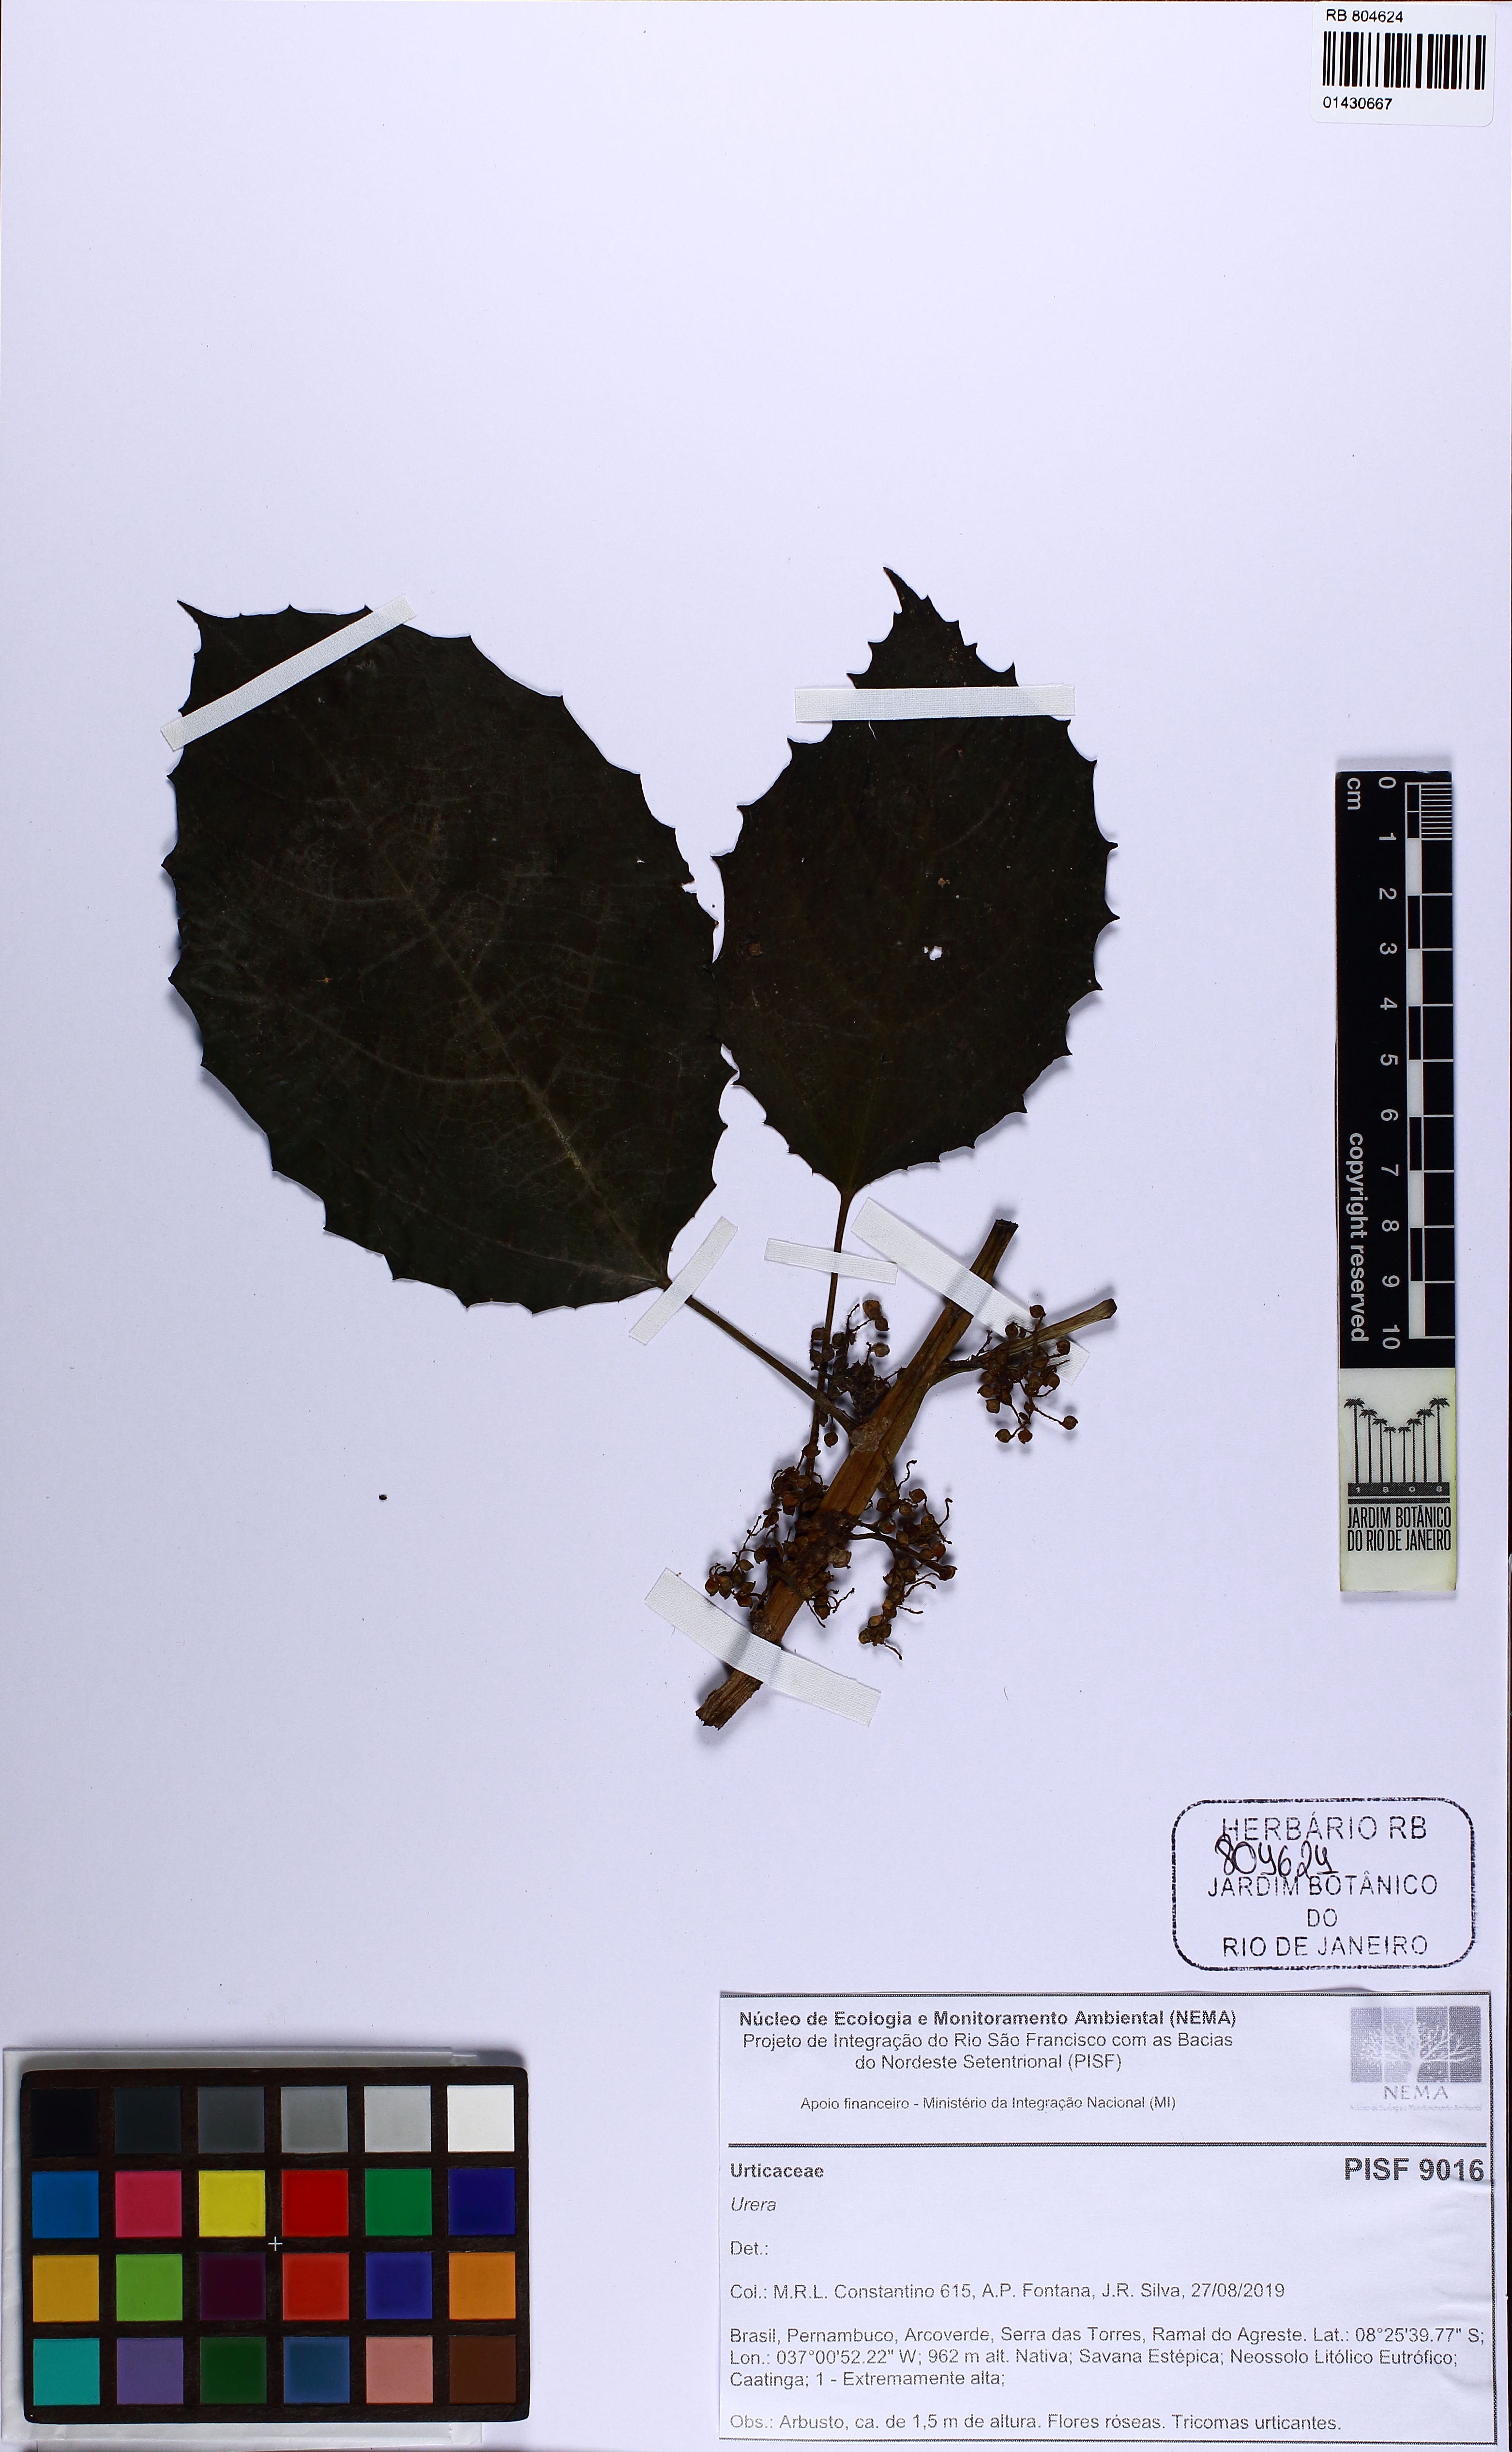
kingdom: Plantae
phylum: Tracheophyta
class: Magnoliopsida
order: Rosales
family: Urticaceae
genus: Urera
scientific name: Urera
